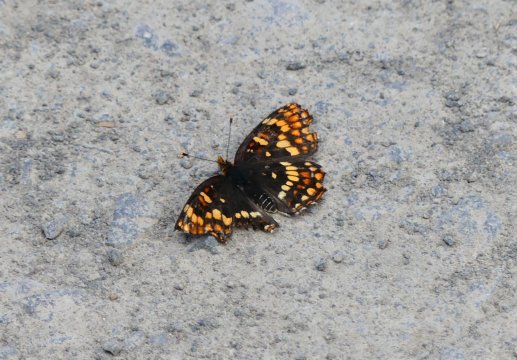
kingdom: Animalia
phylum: Arthropoda
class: Insecta
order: Lepidoptera
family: Nymphalidae
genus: Chlosyne
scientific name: Chlosyne hoffmanni
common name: Hoffmann's Checkerspot
